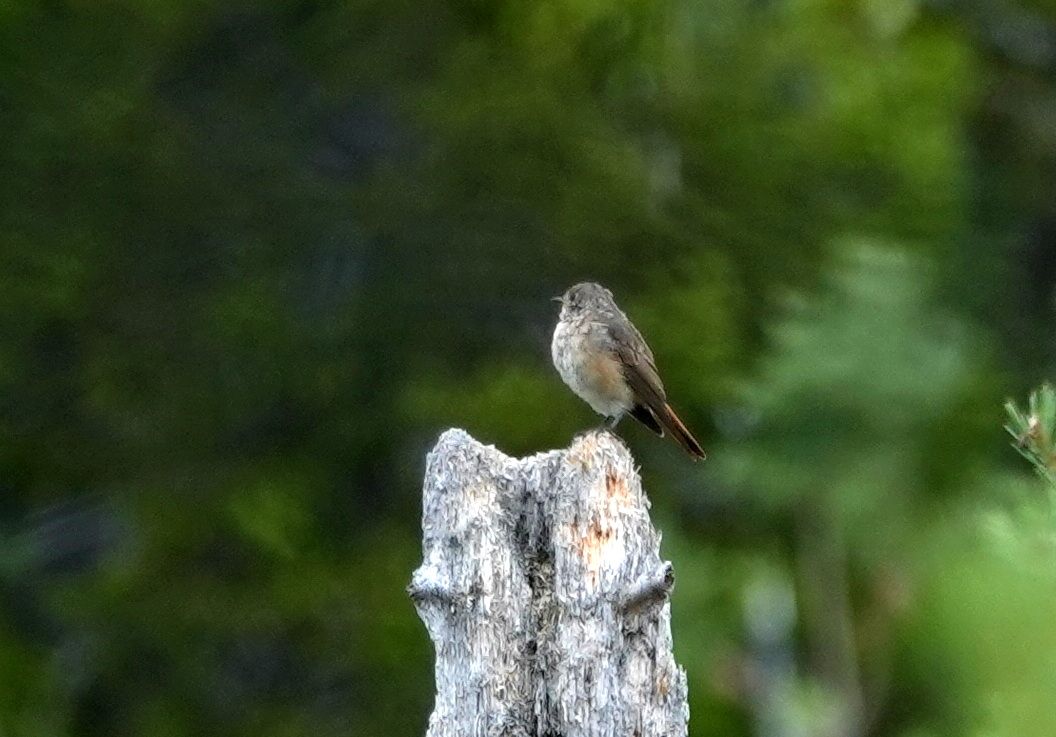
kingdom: Animalia
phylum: Chordata
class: Aves
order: Passeriformes
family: Muscicapidae
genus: Phoenicurus
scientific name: Phoenicurus phoenicurus
